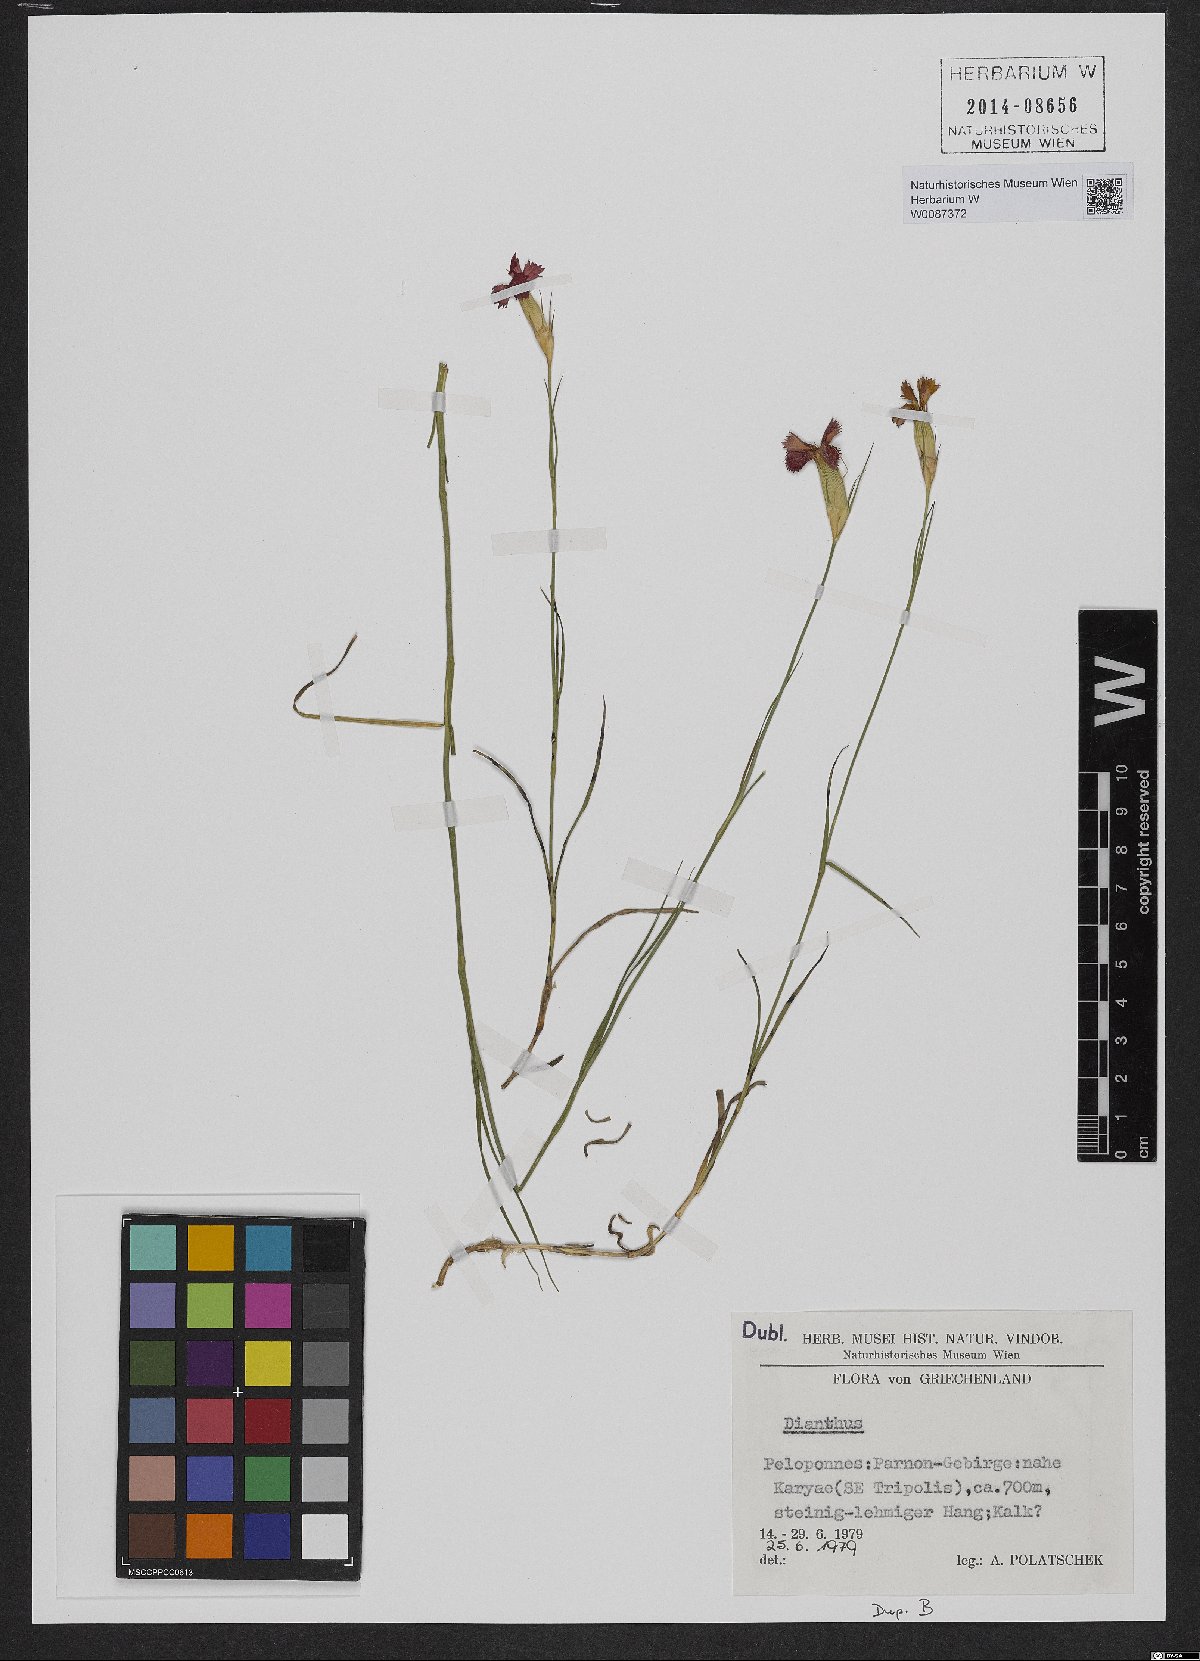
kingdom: Plantae
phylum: Tracheophyta
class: Magnoliopsida
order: Caryophyllales
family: Caryophyllaceae
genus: Dianthus
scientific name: Dianthus
